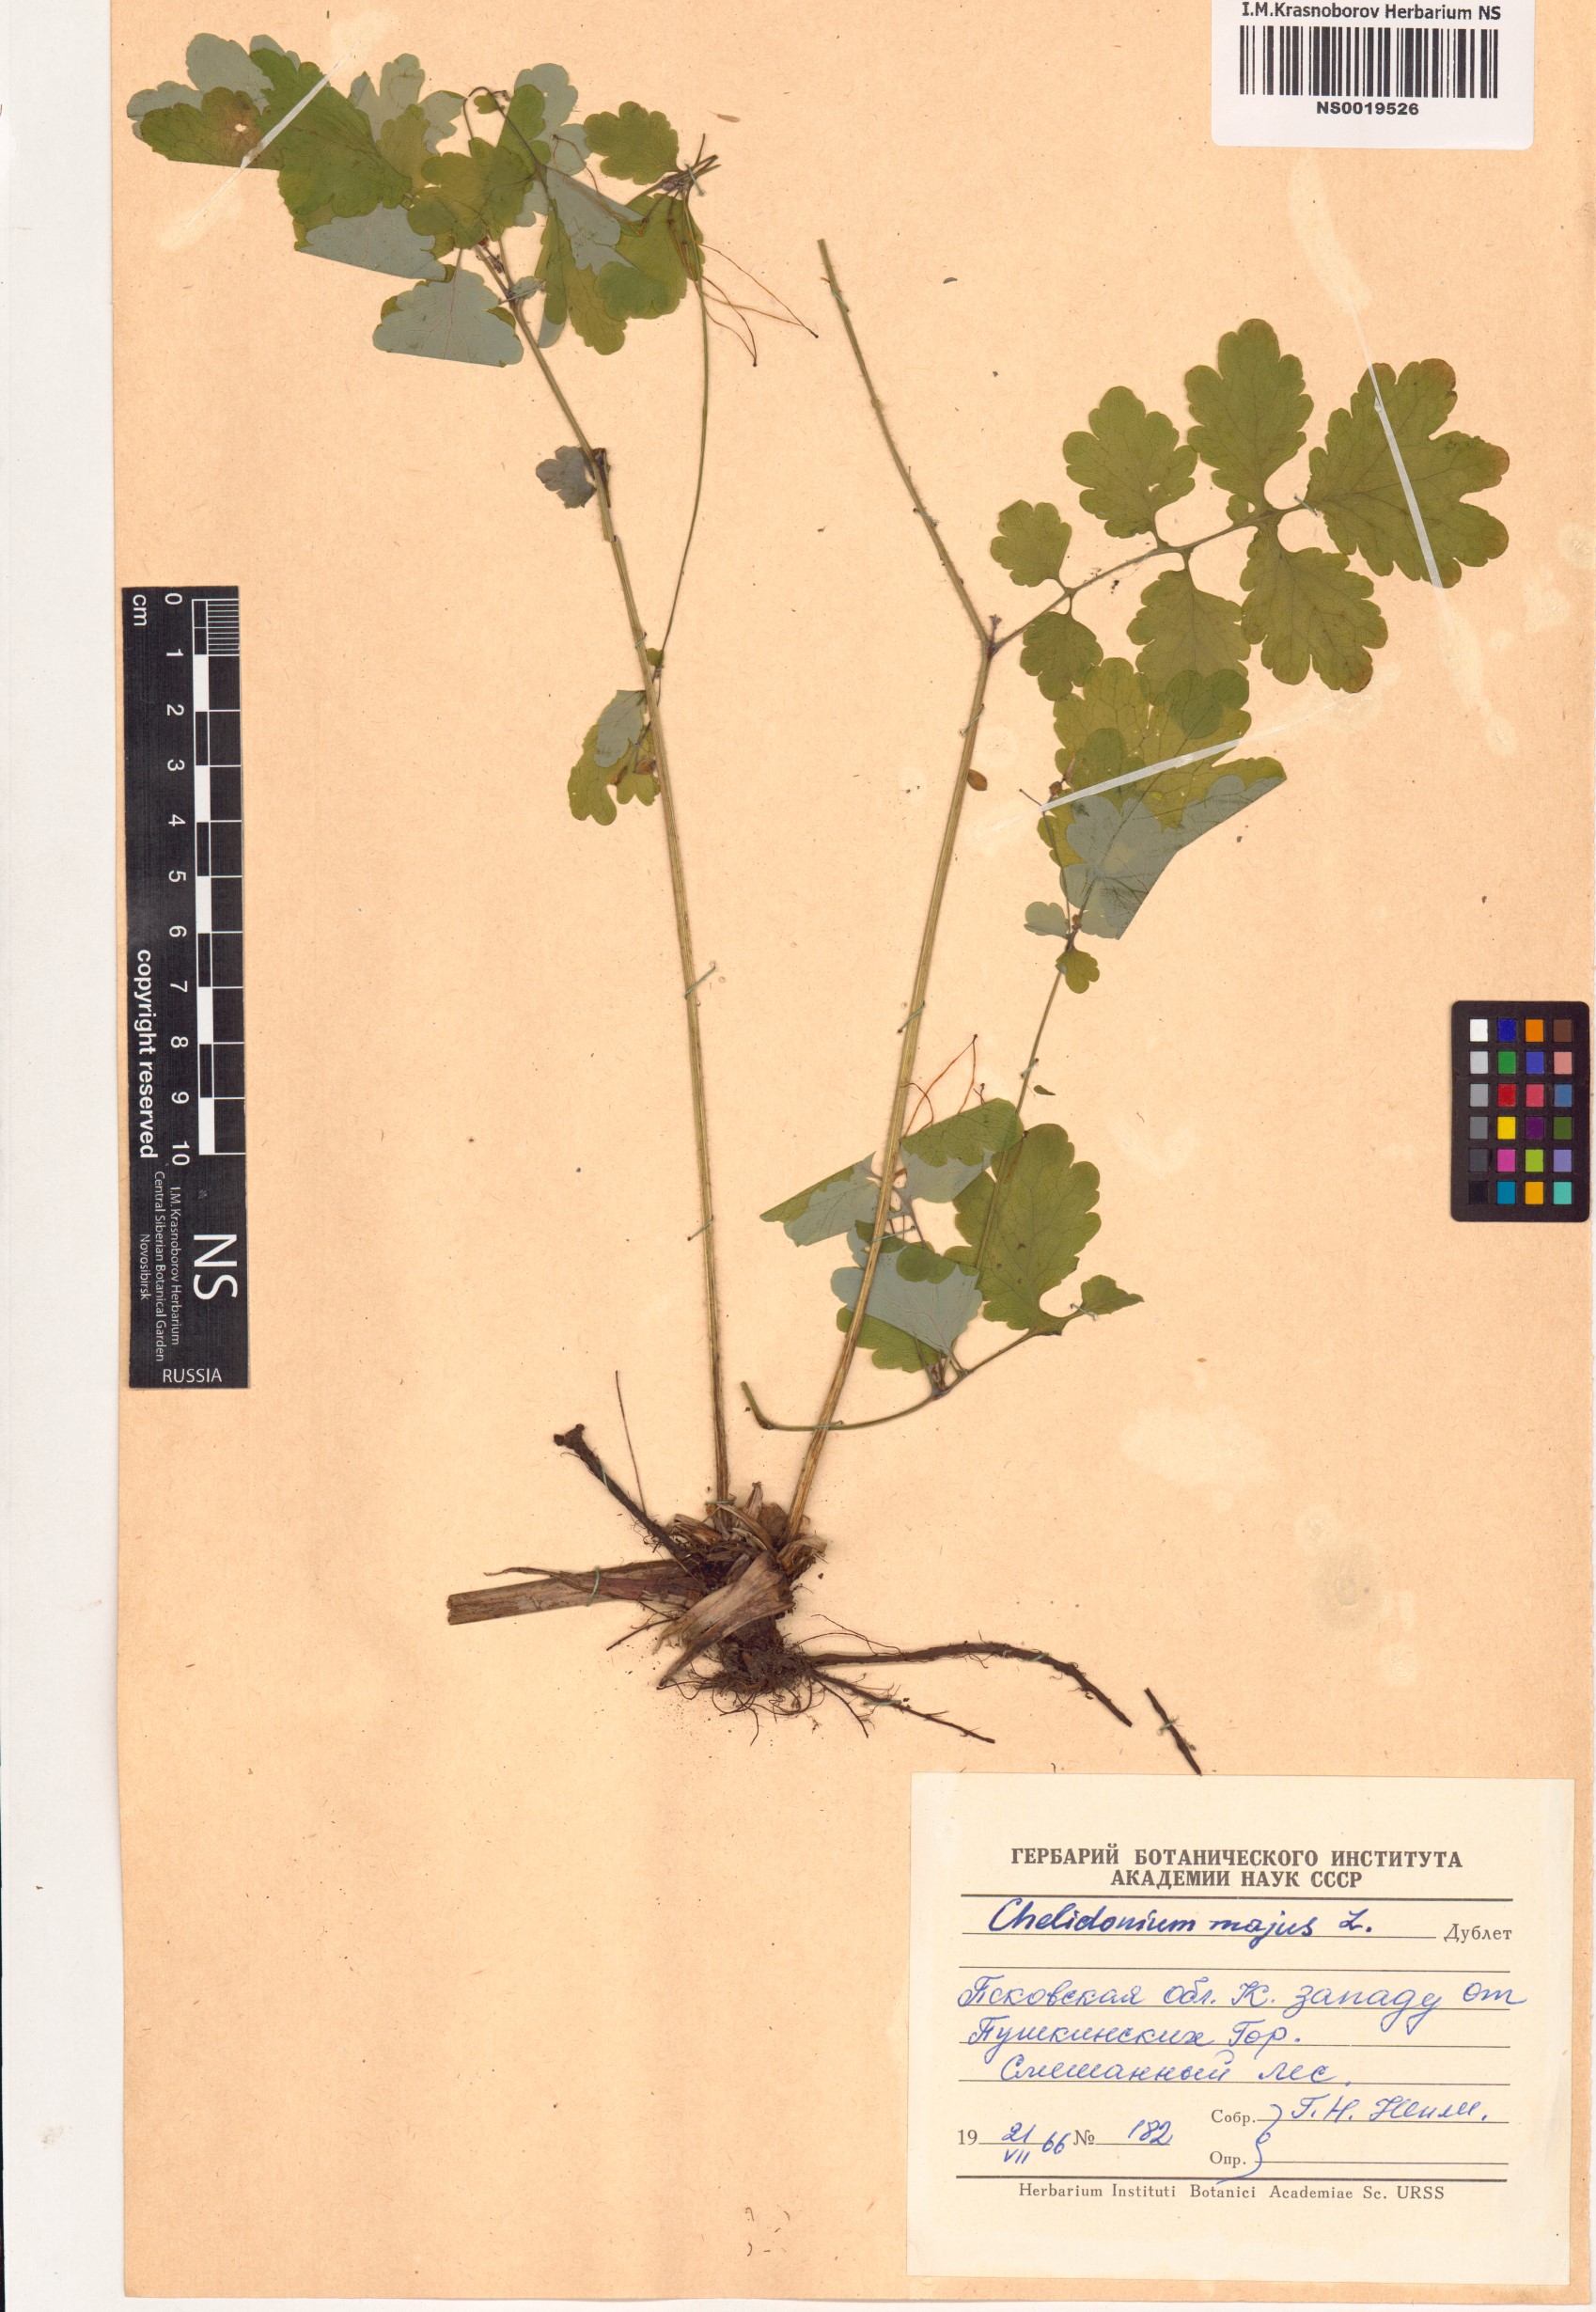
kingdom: Plantae
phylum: Tracheophyta
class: Magnoliopsida
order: Ranunculales
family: Papaveraceae
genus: Chelidonium
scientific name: Chelidonium majus
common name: Greater celandine
